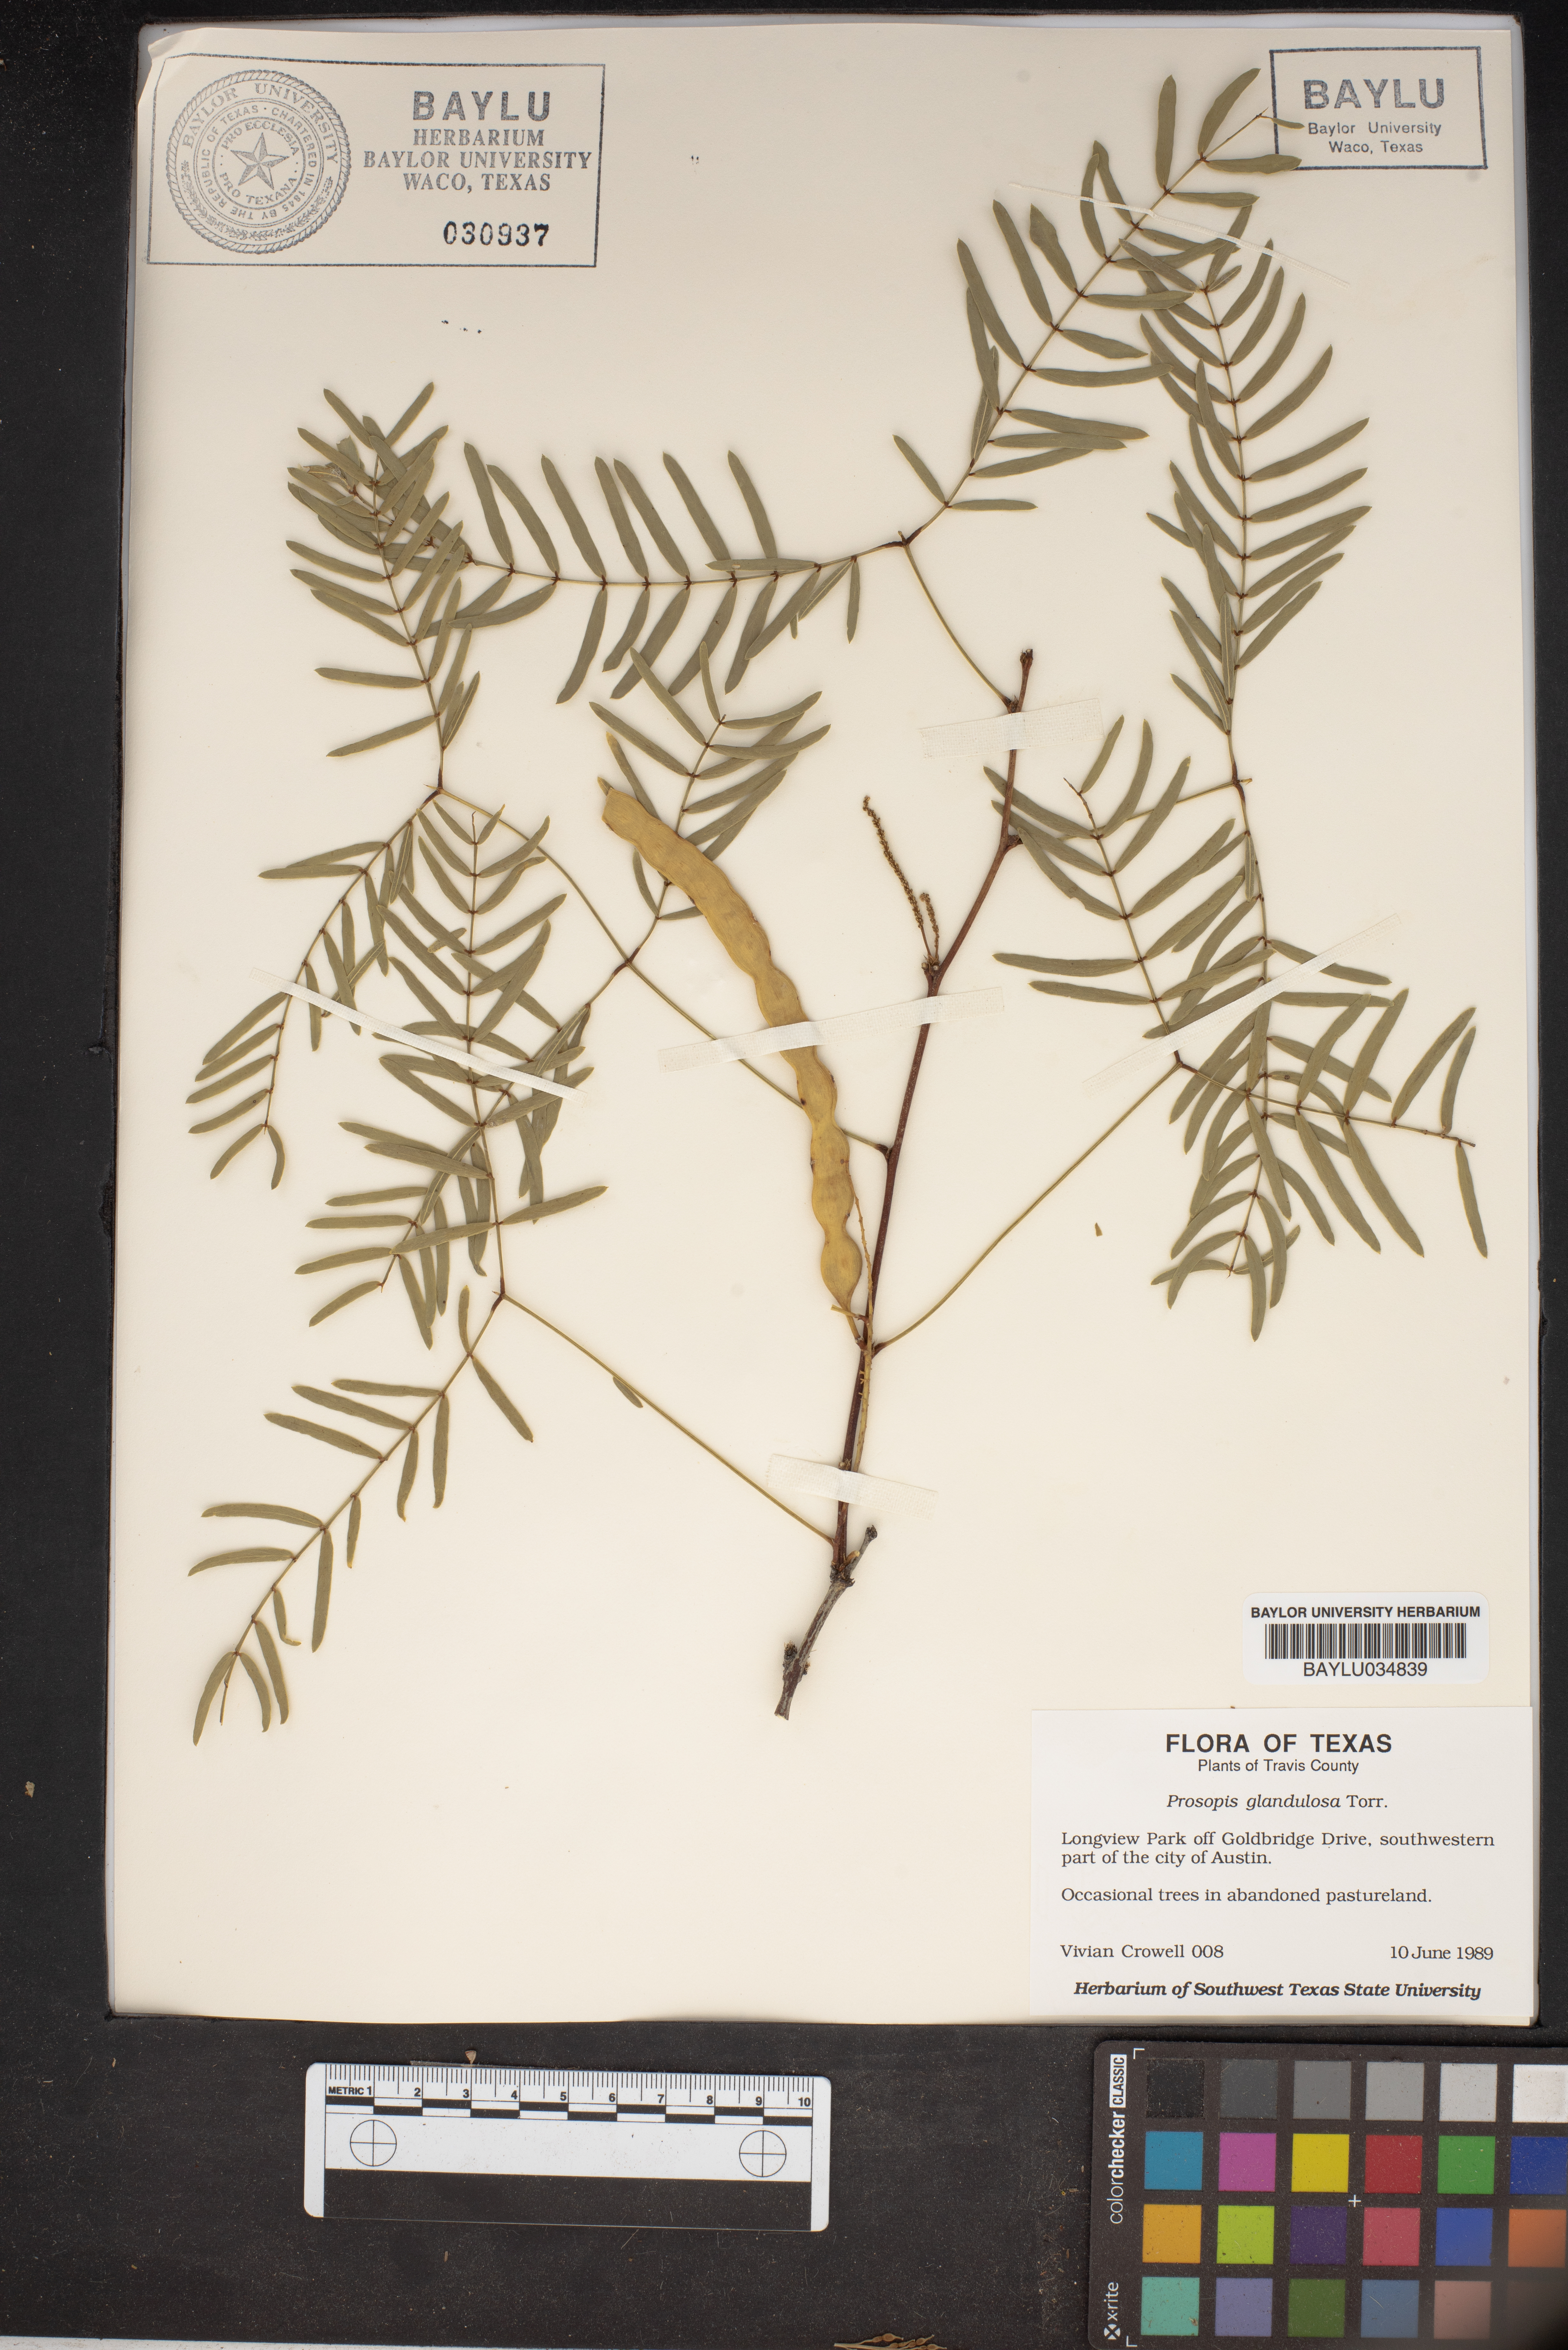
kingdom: Plantae
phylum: Tracheophyta
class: Magnoliopsida
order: Fabales
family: Fabaceae
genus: Prosopis
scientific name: Prosopis glandulosa
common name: Honey mesquite
